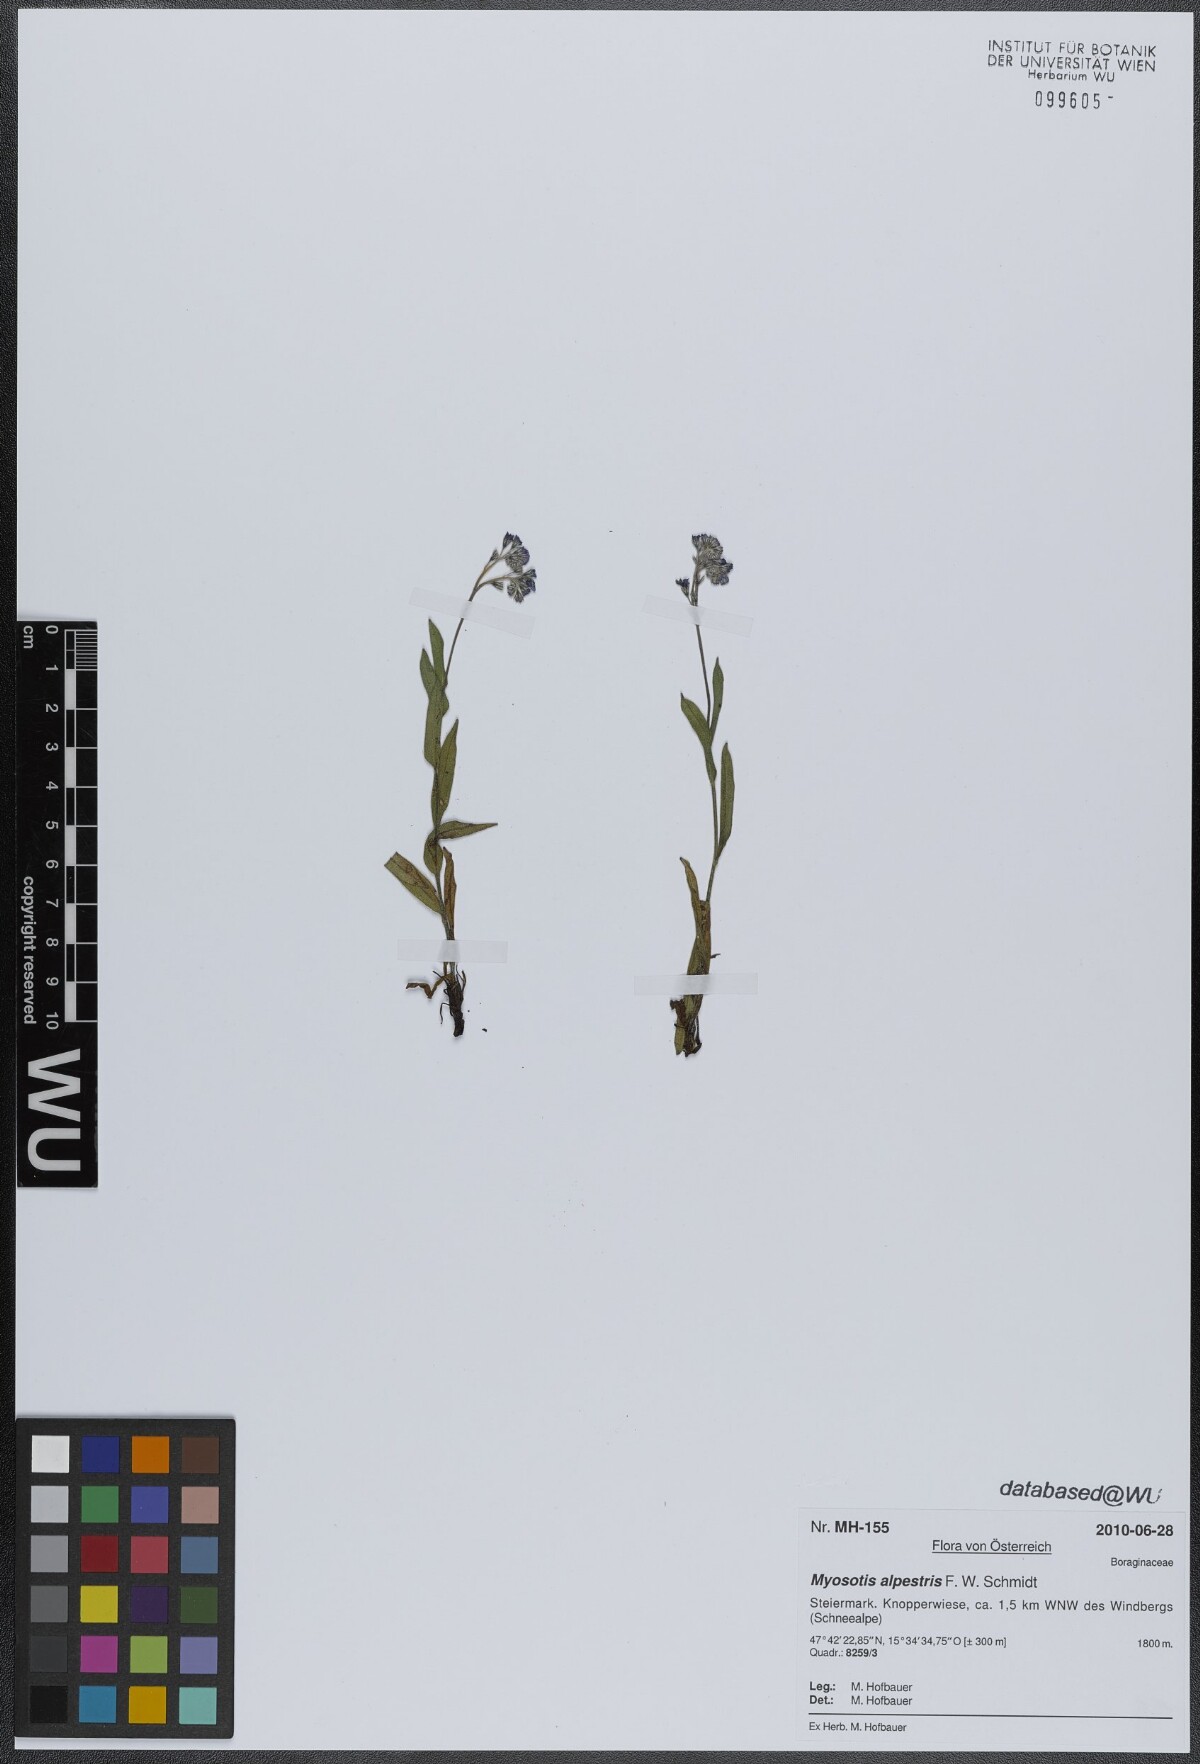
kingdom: Plantae
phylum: Tracheophyta
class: Magnoliopsida
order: Boraginales
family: Boraginaceae
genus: Myosotis
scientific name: Myosotis alpestris
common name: Alpine forget-me-not
